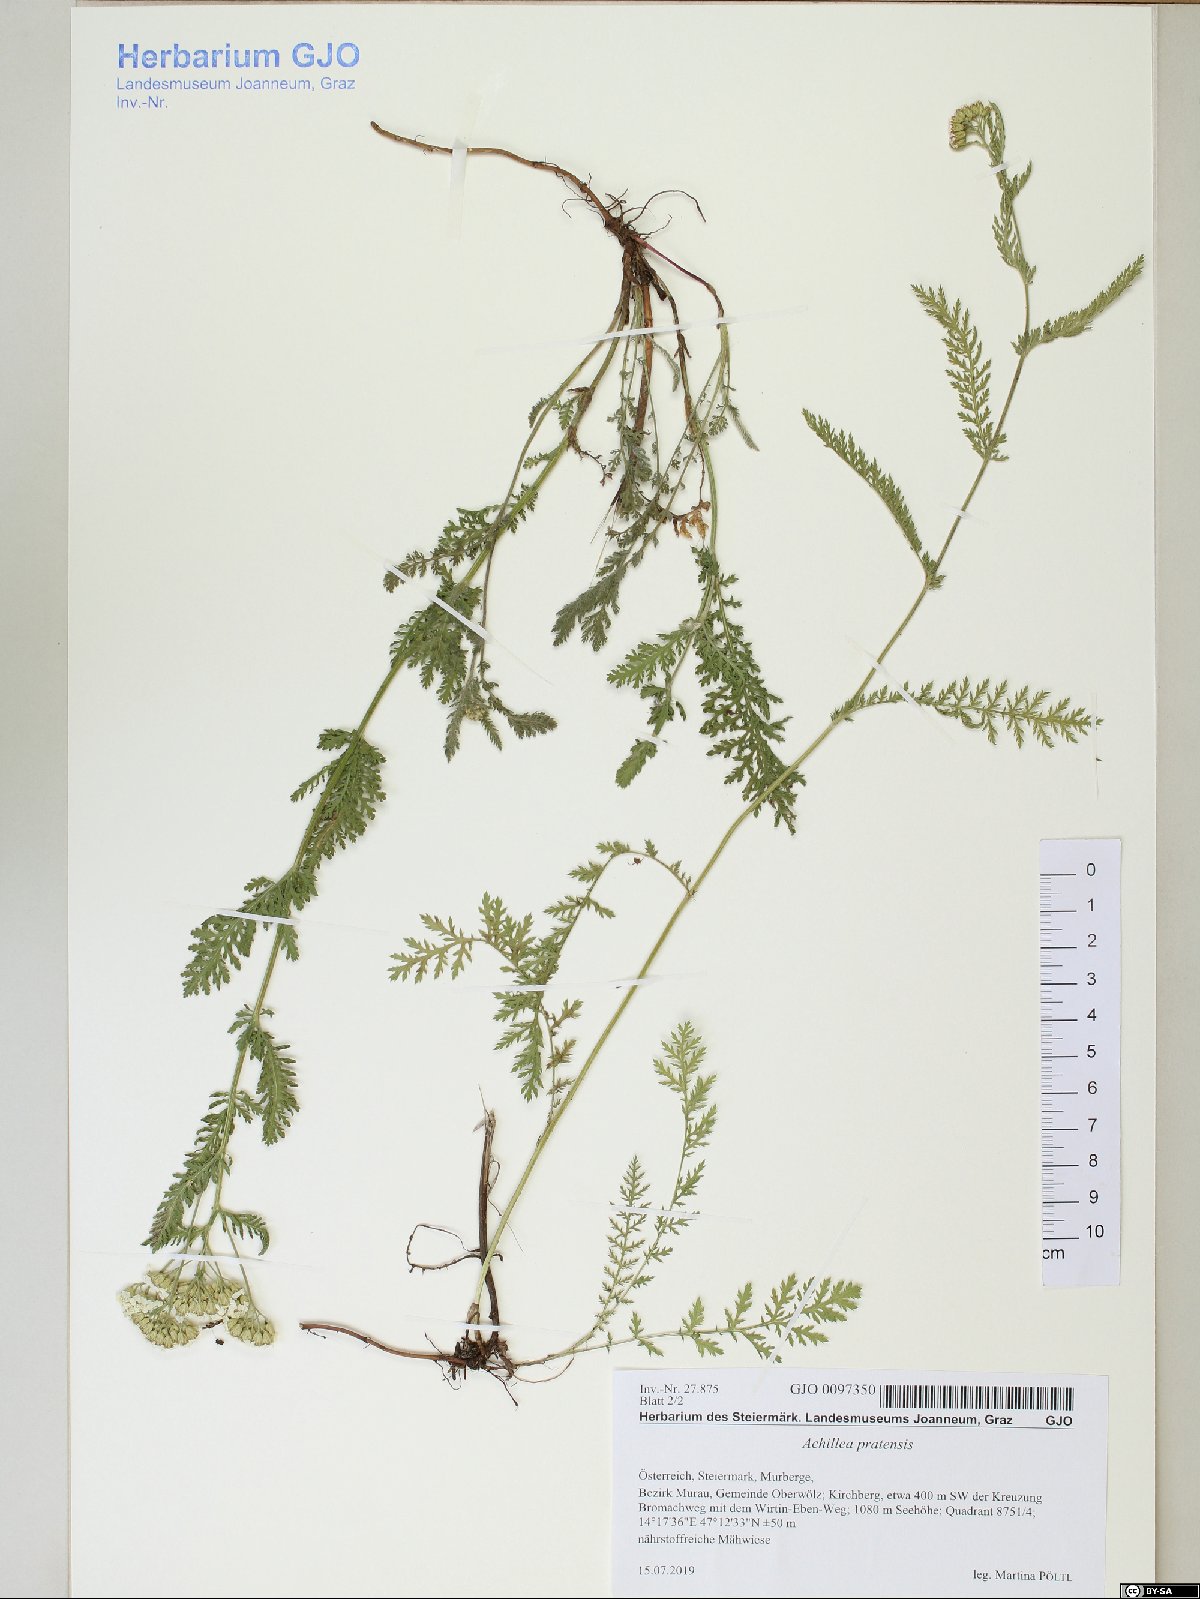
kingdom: Plantae
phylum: Tracheophyta
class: Magnoliopsida
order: Asterales
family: Asteraceae
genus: Achillea
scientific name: Achillea pratensis
